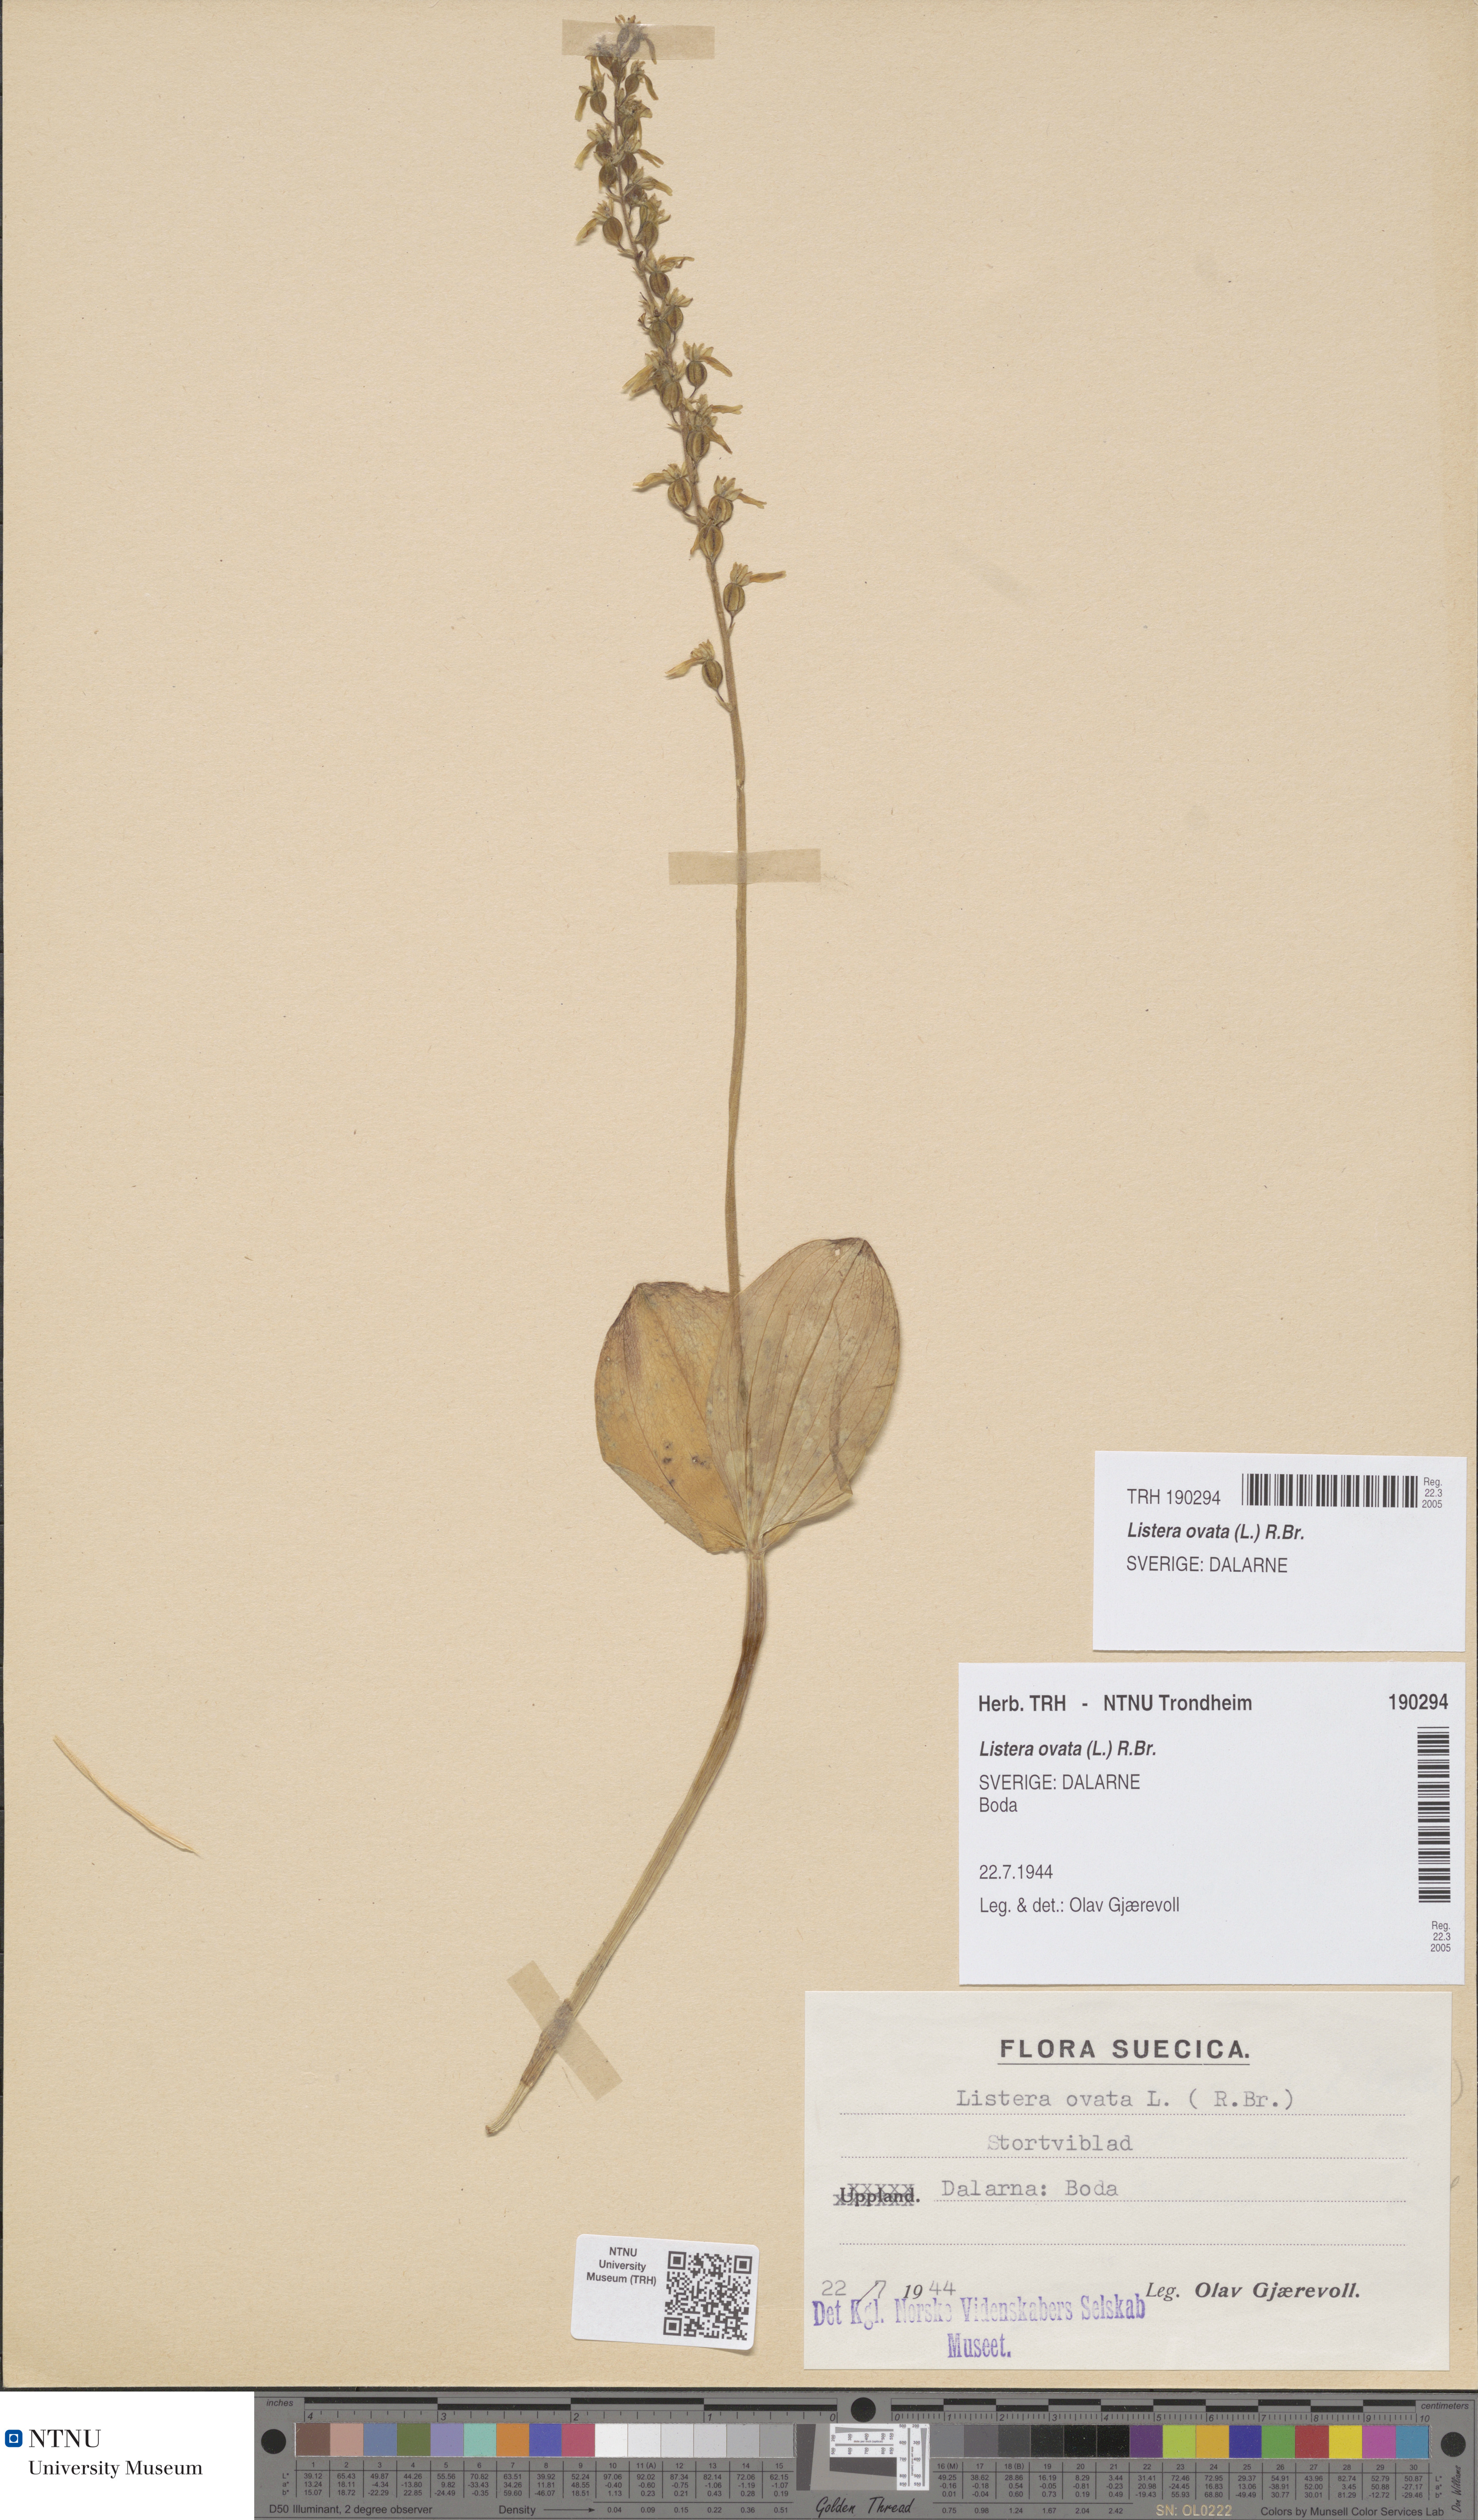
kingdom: Plantae
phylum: Tracheophyta
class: Liliopsida
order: Asparagales
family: Orchidaceae
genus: Neottia
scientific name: Neottia ovata
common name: Common twayblade
